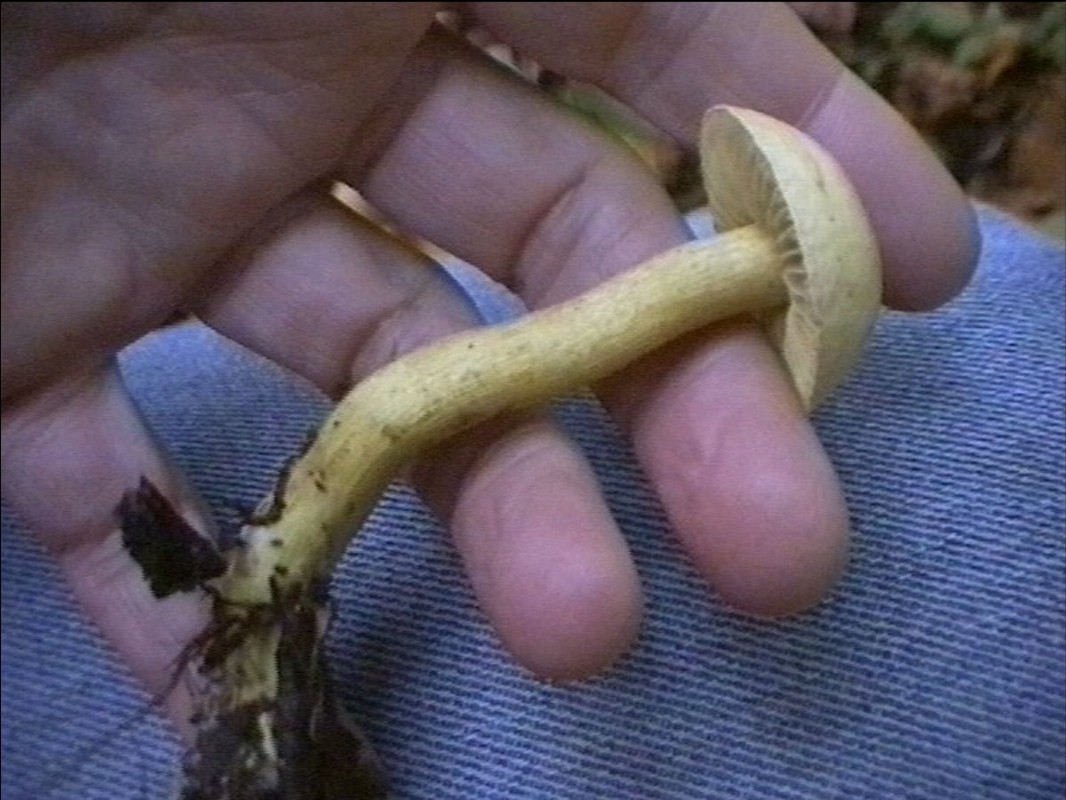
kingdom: Fungi
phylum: Basidiomycota
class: Agaricomycetes
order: Agaricales
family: Tricholomataceae
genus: Tricholoma
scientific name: Tricholoma sulphureum
